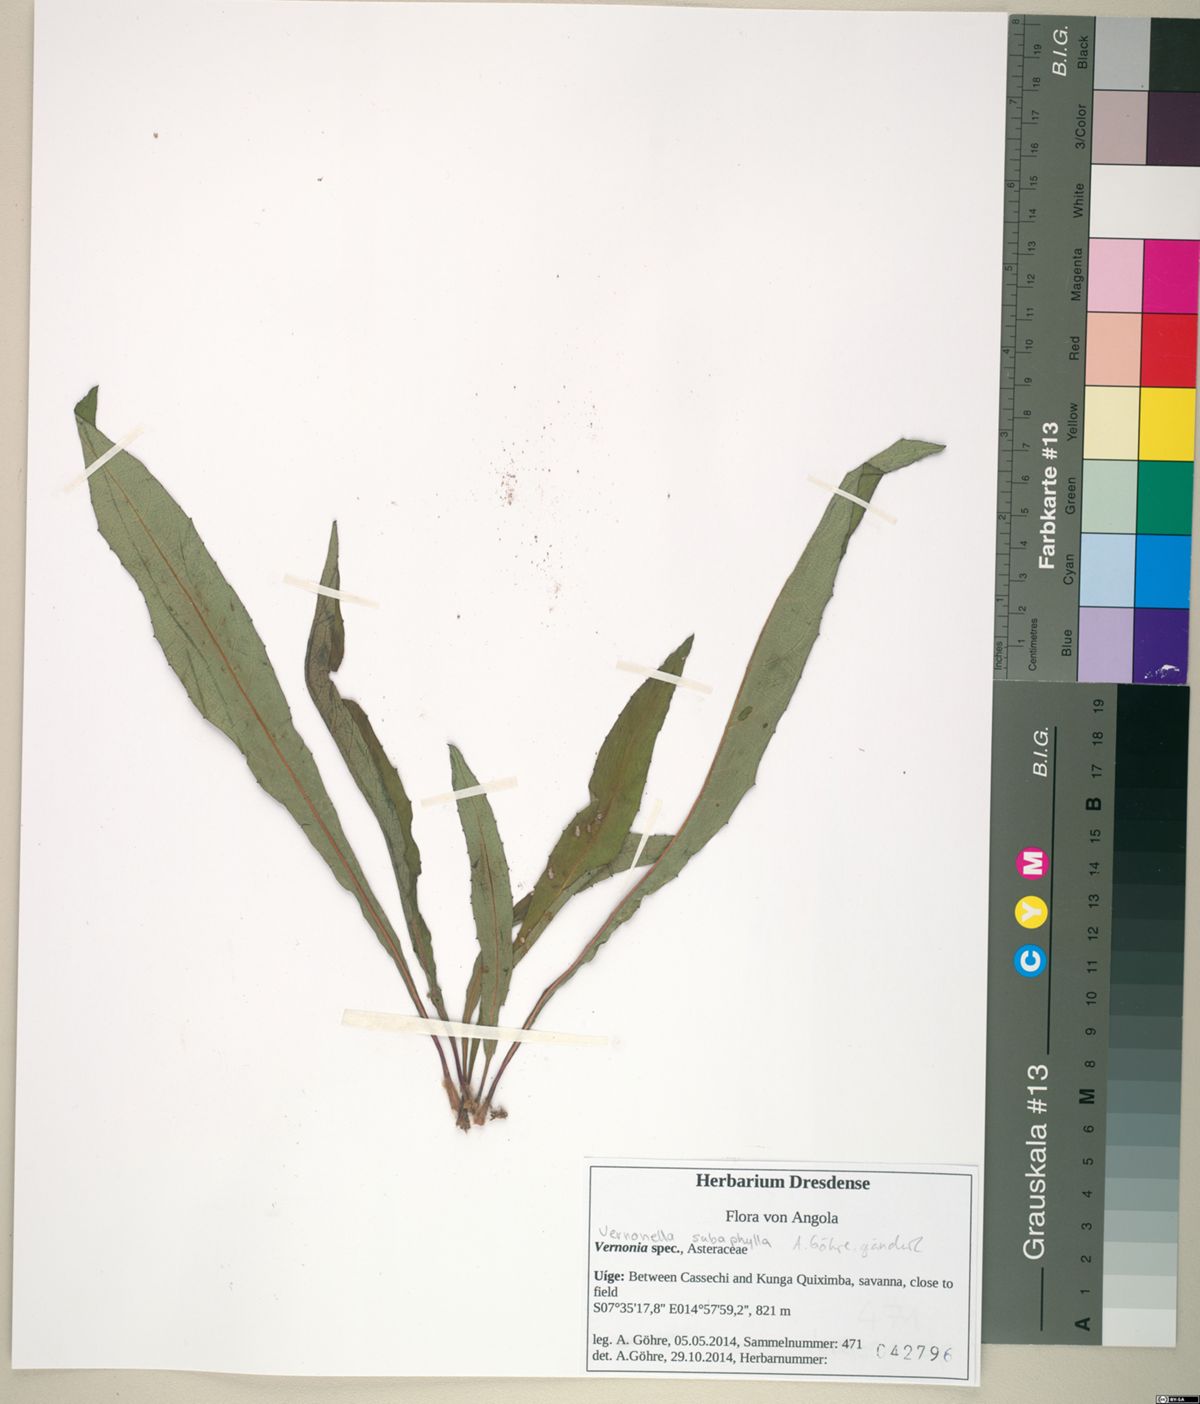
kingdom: Plantae
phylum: Tracheophyta
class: Magnoliopsida
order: Asterales
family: Asteraceae
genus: Vernonella
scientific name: Vernonella subaphylla
